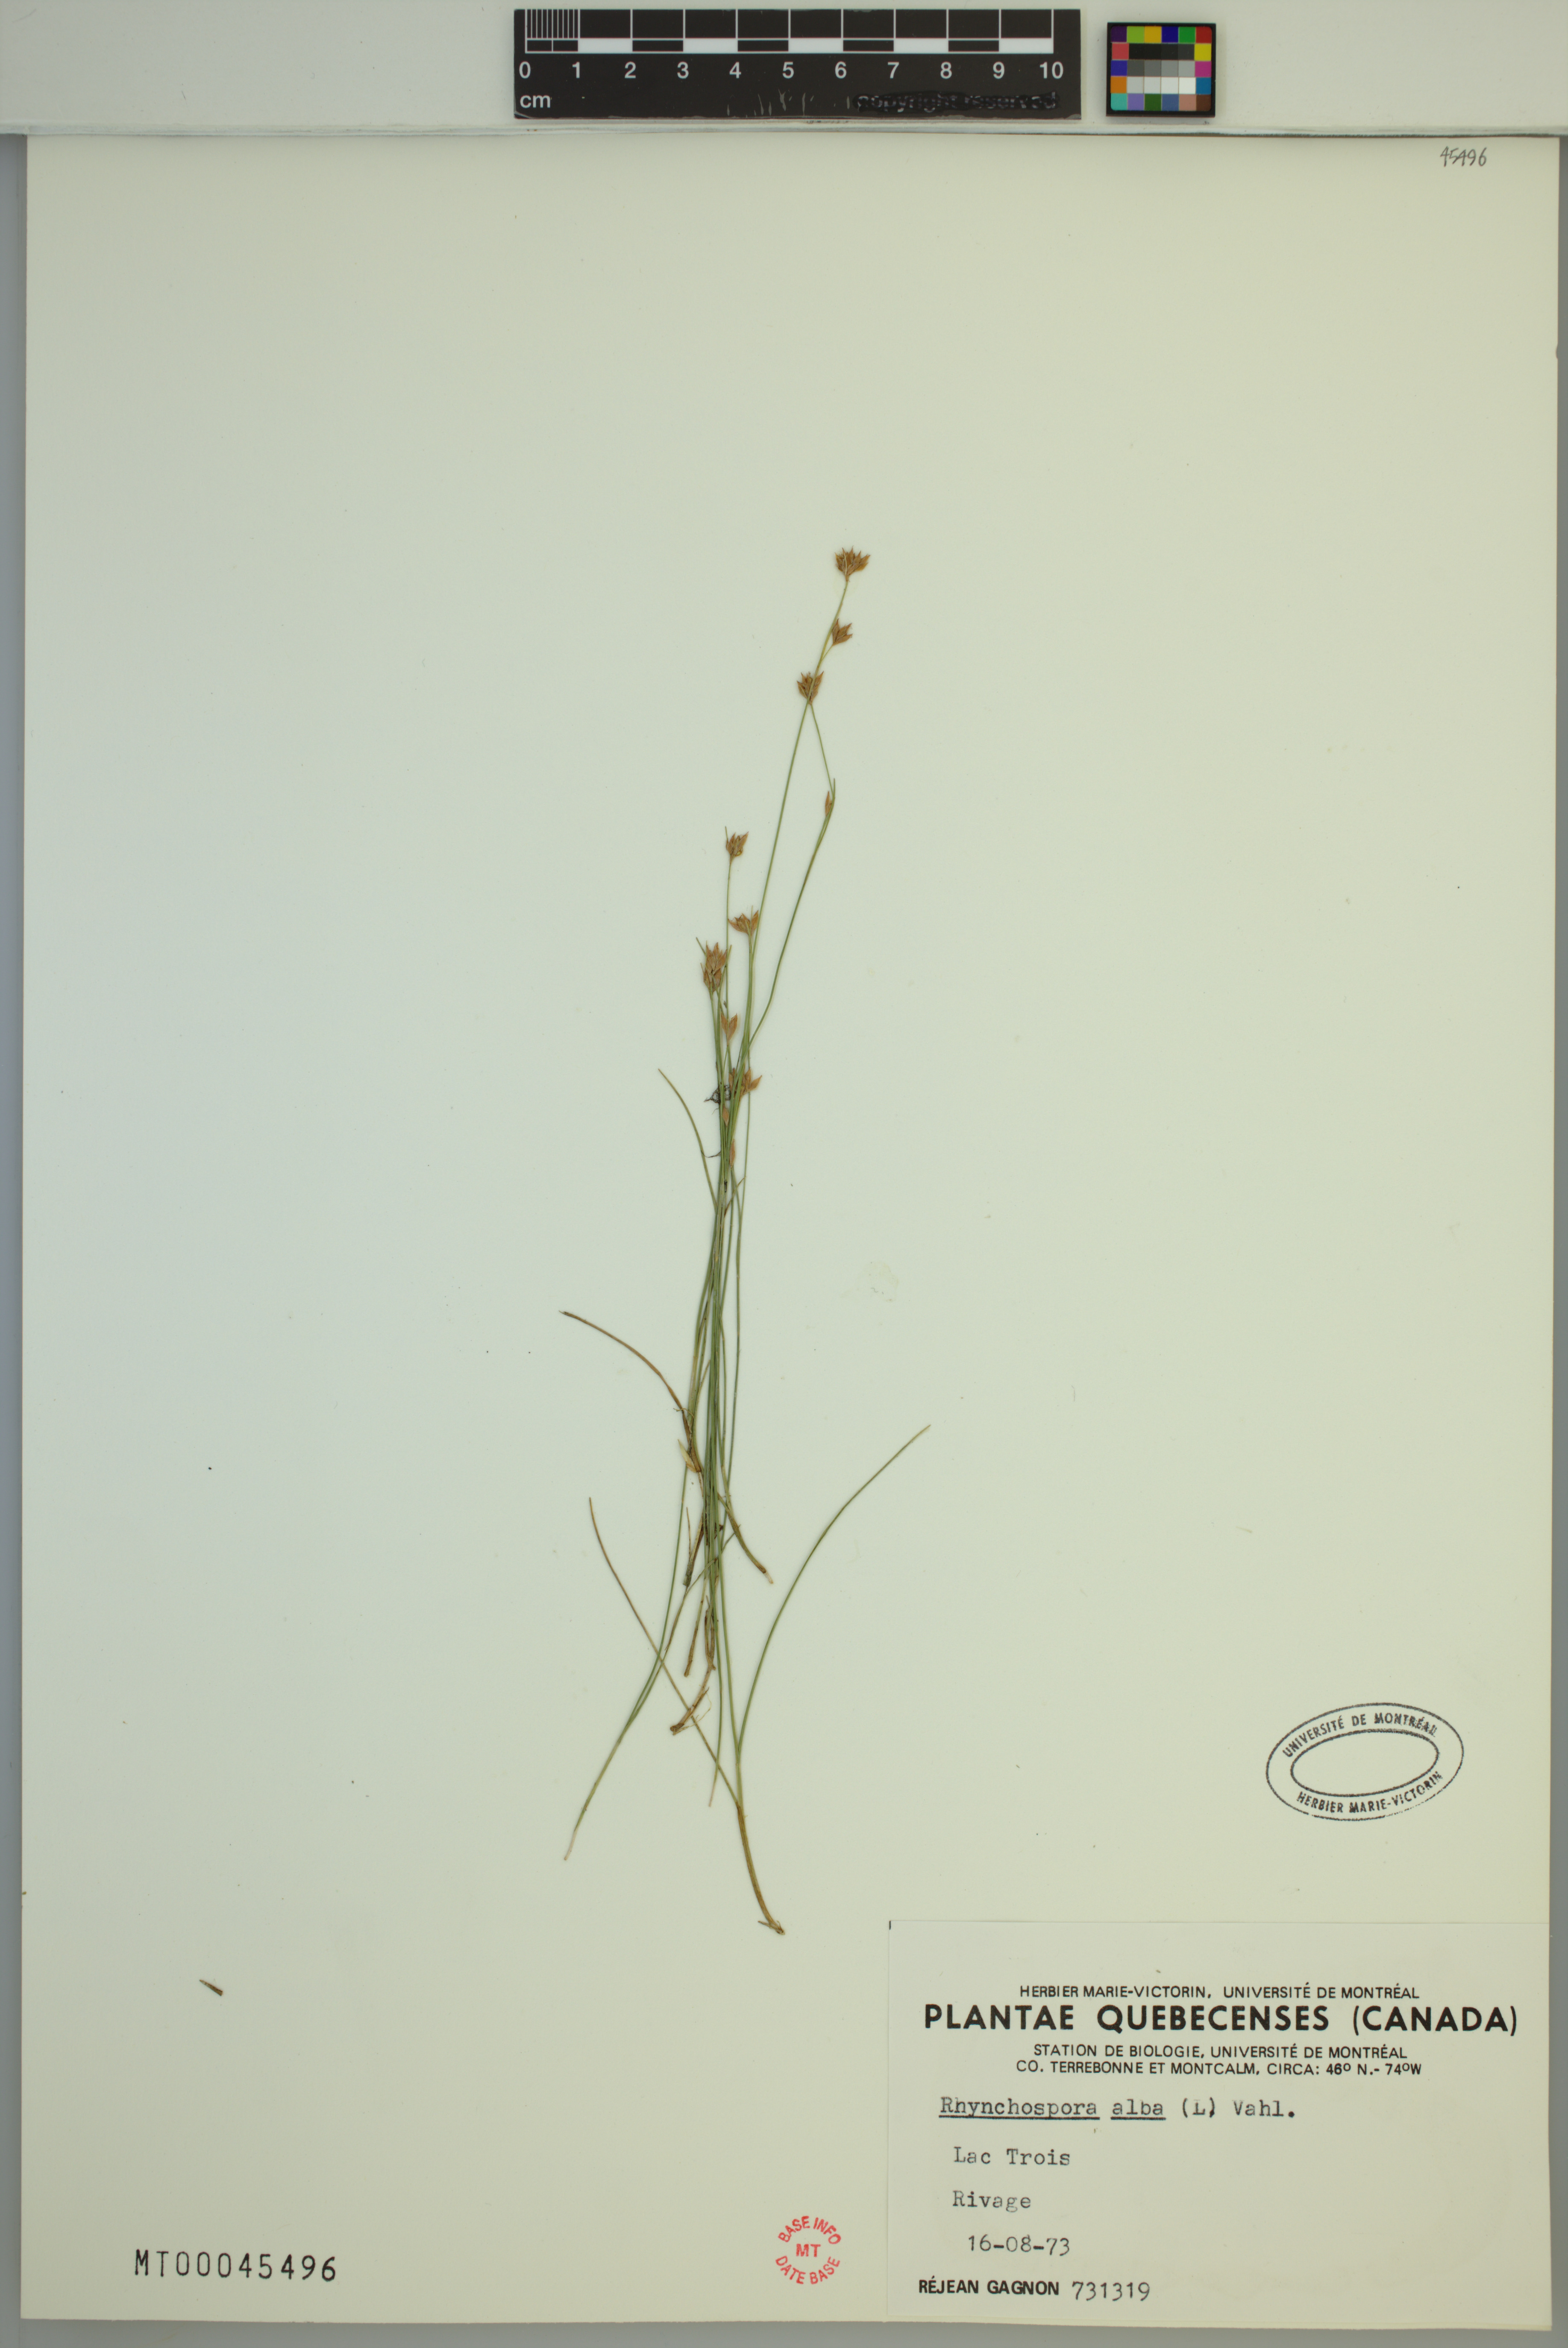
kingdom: Plantae
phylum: Tracheophyta
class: Liliopsida
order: Poales
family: Cyperaceae
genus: Rhynchospora
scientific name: Rhynchospora alba
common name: White beak-sedge
